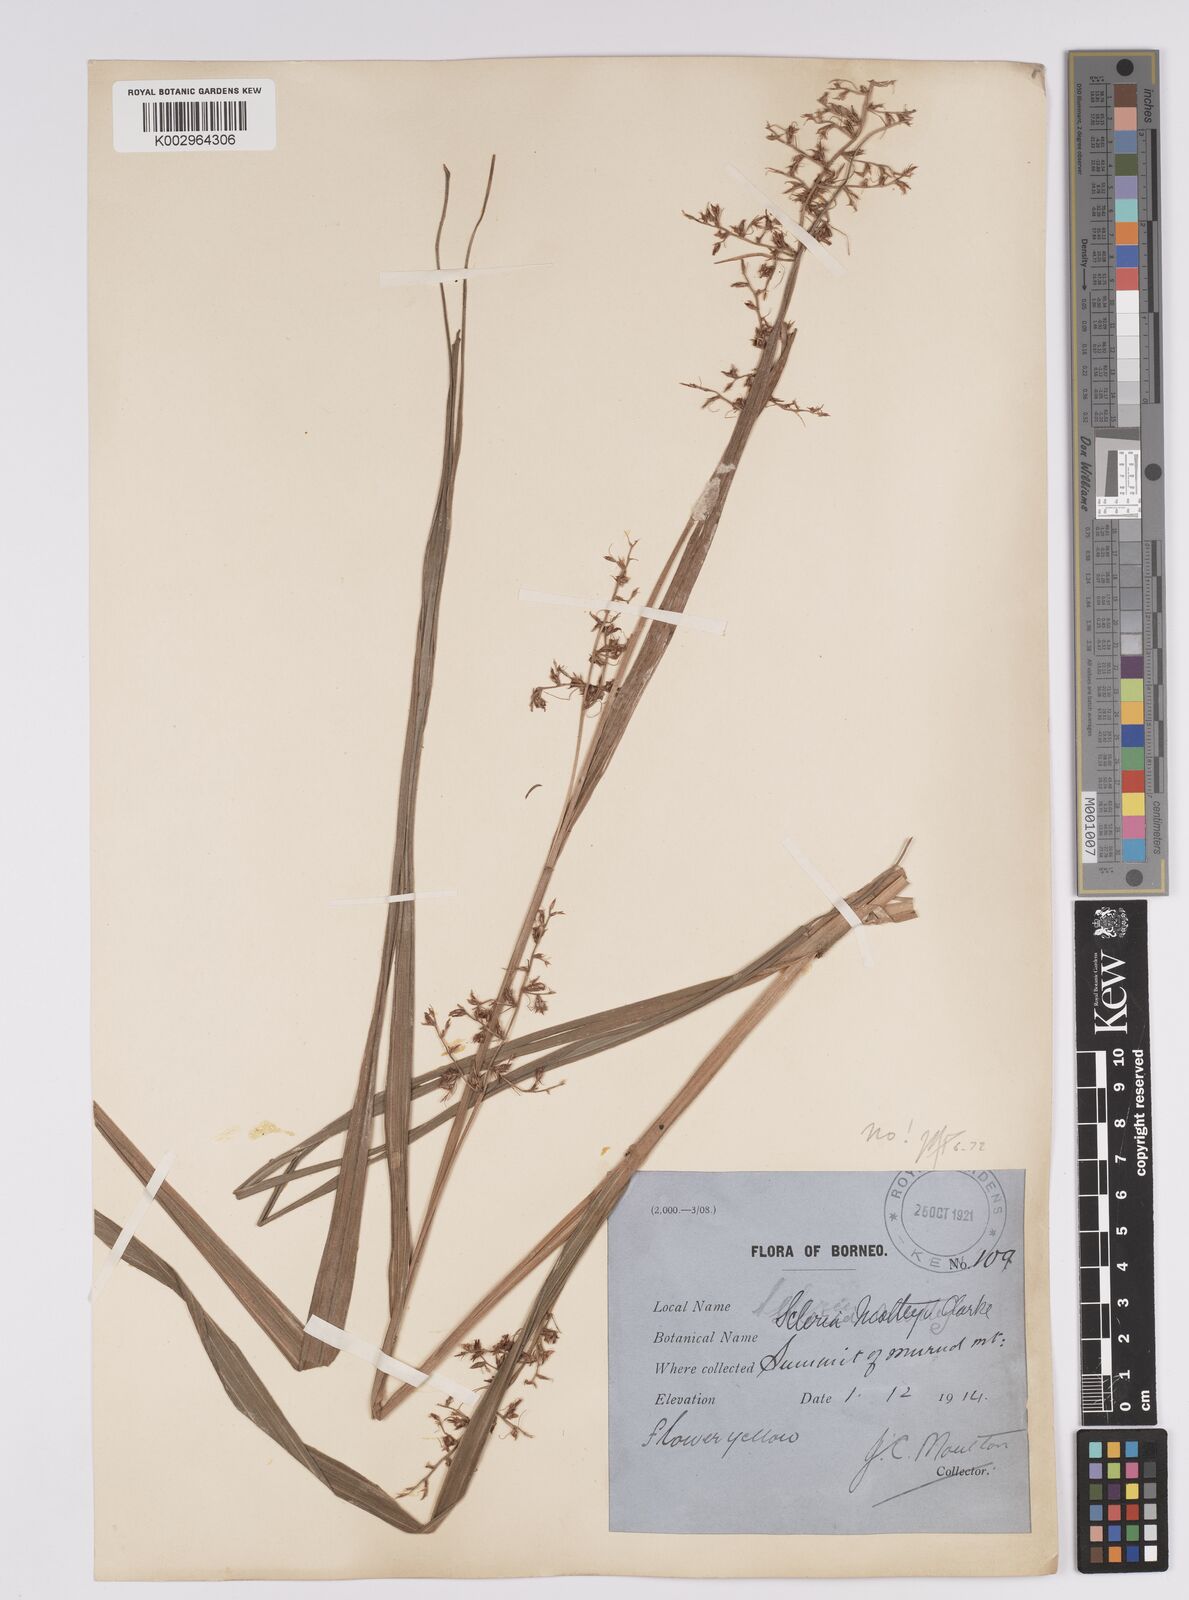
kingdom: Plantae
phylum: Tracheophyta
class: Liliopsida
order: Poales
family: Cyperaceae
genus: Scleria
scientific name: Scleria motleyi
